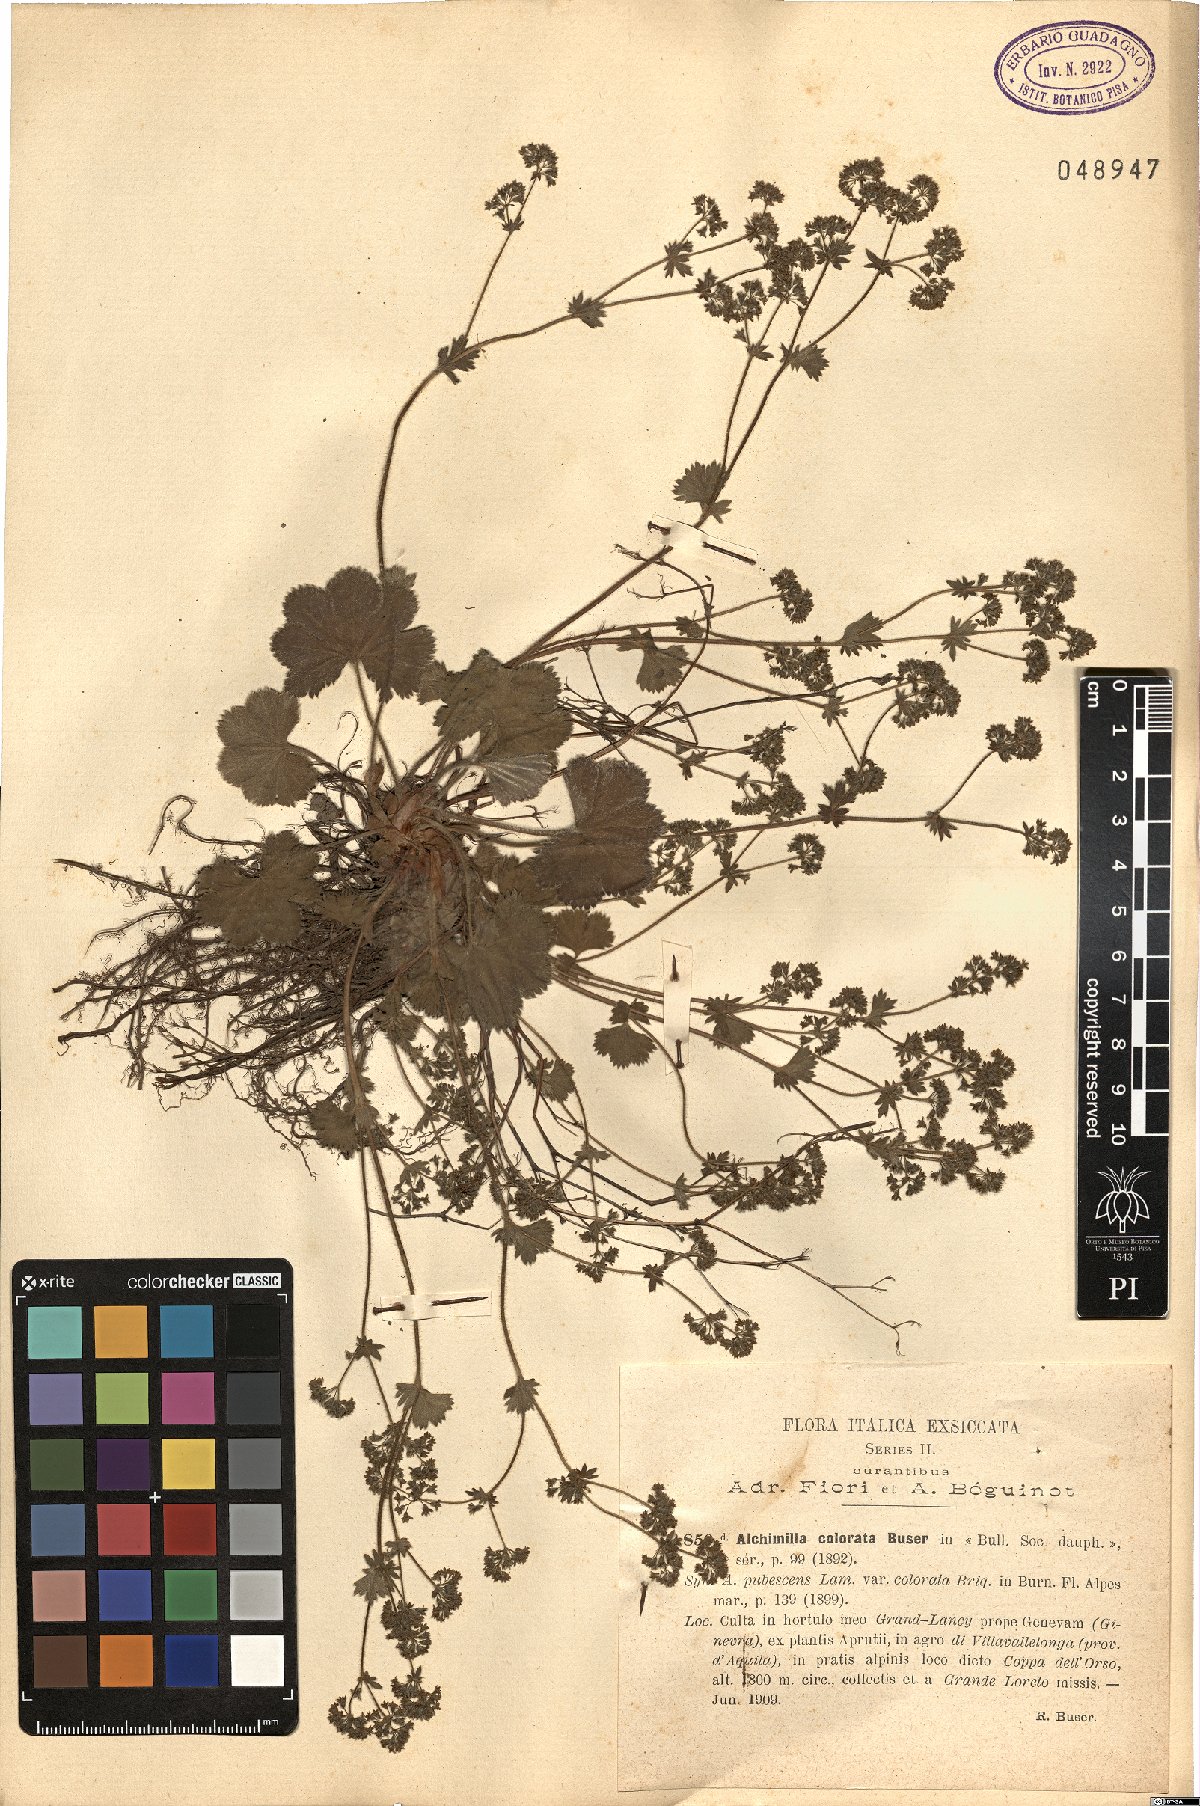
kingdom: Plantae
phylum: Tracheophyta
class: Magnoliopsida
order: Rosales
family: Rosaceae
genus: Alchemilla
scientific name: Alchemilla colorata
